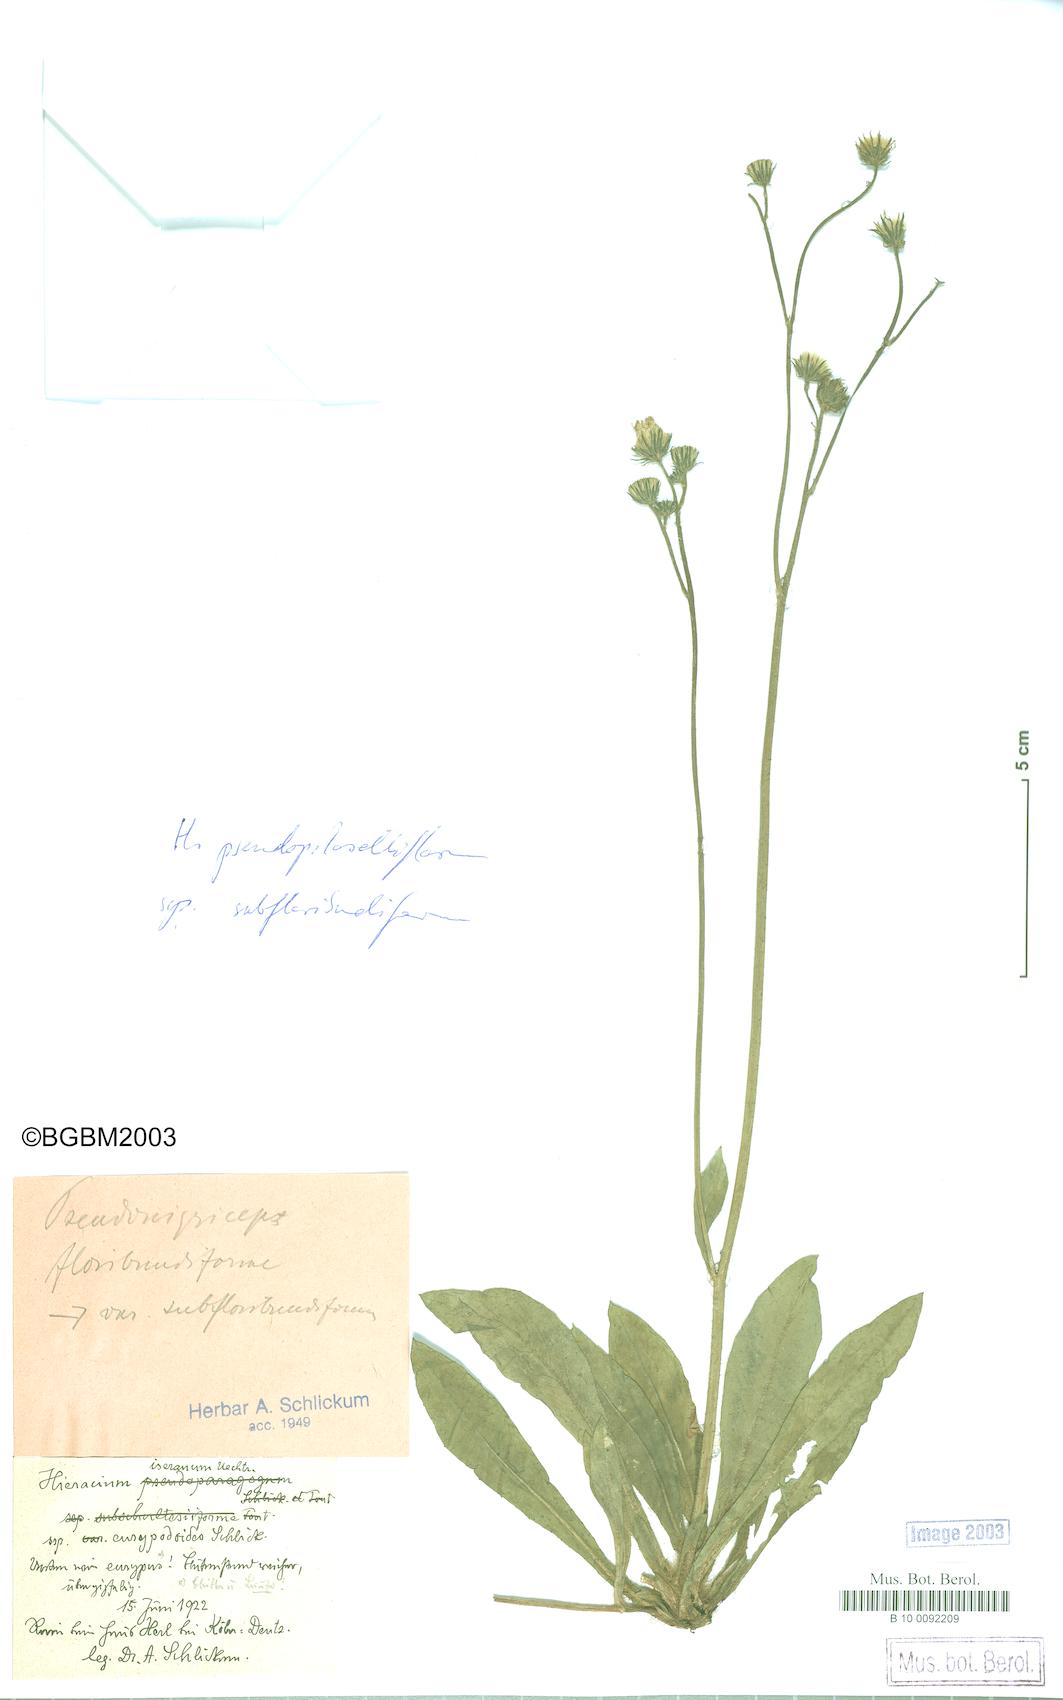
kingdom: Plantae
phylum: Tracheophyta
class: Magnoliopsida
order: Asterales
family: Asteraceae
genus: Pilosella
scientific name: Pilosella piloselliflora
